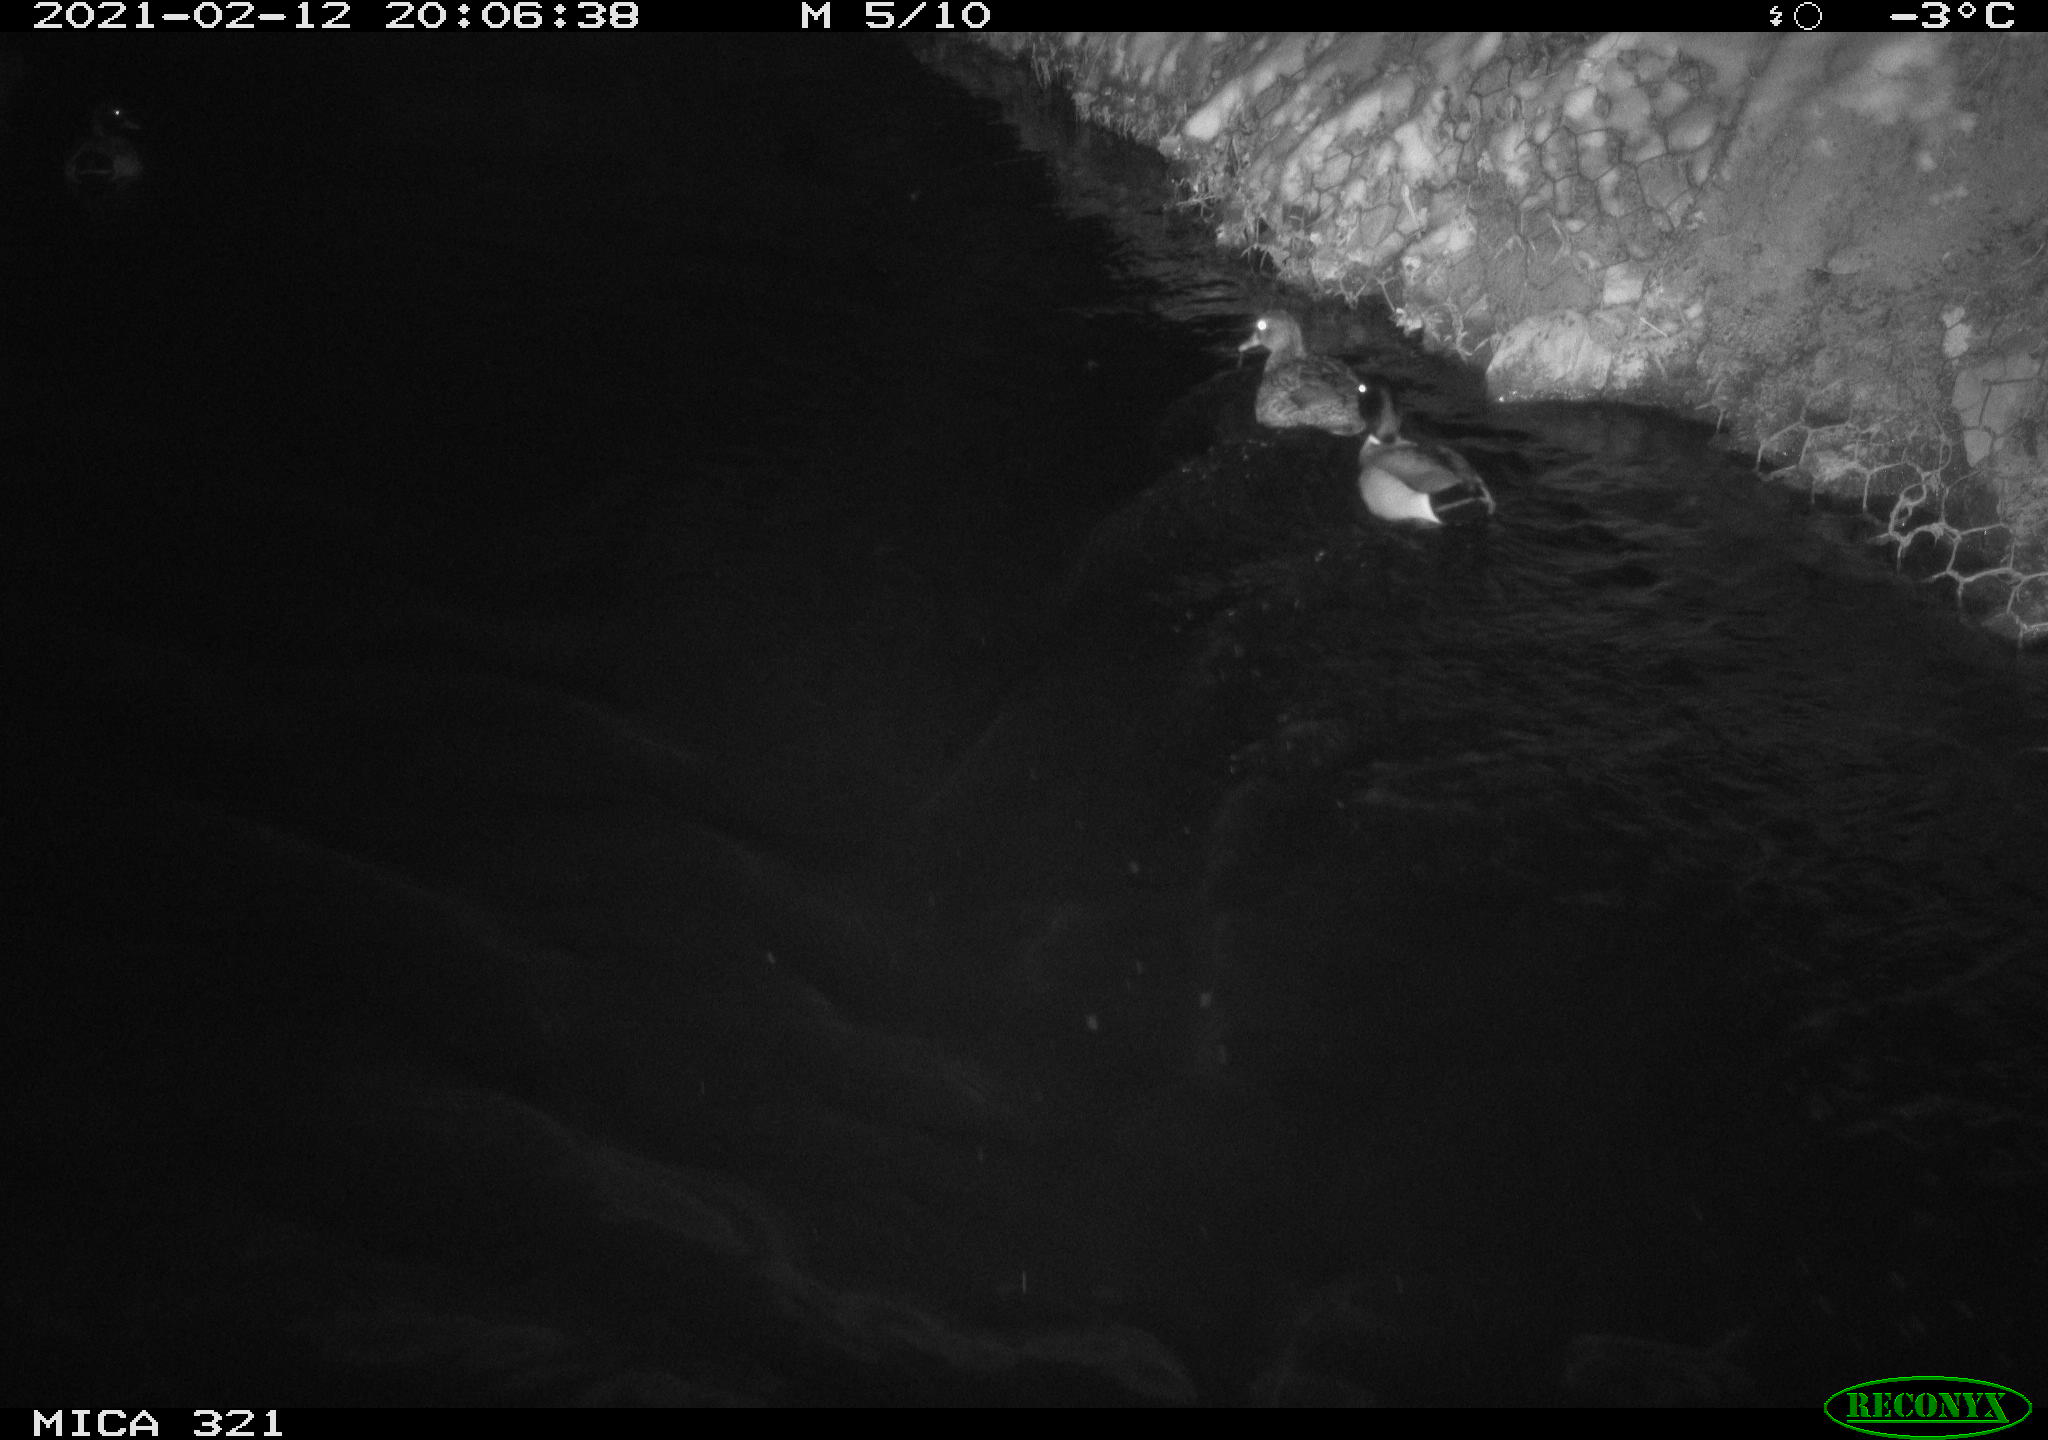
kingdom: Animalia
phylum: Chordata
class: Aves
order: Anseriformes
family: Anatidae
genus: Anas
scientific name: Anas platyrhynchos
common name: Mallard
